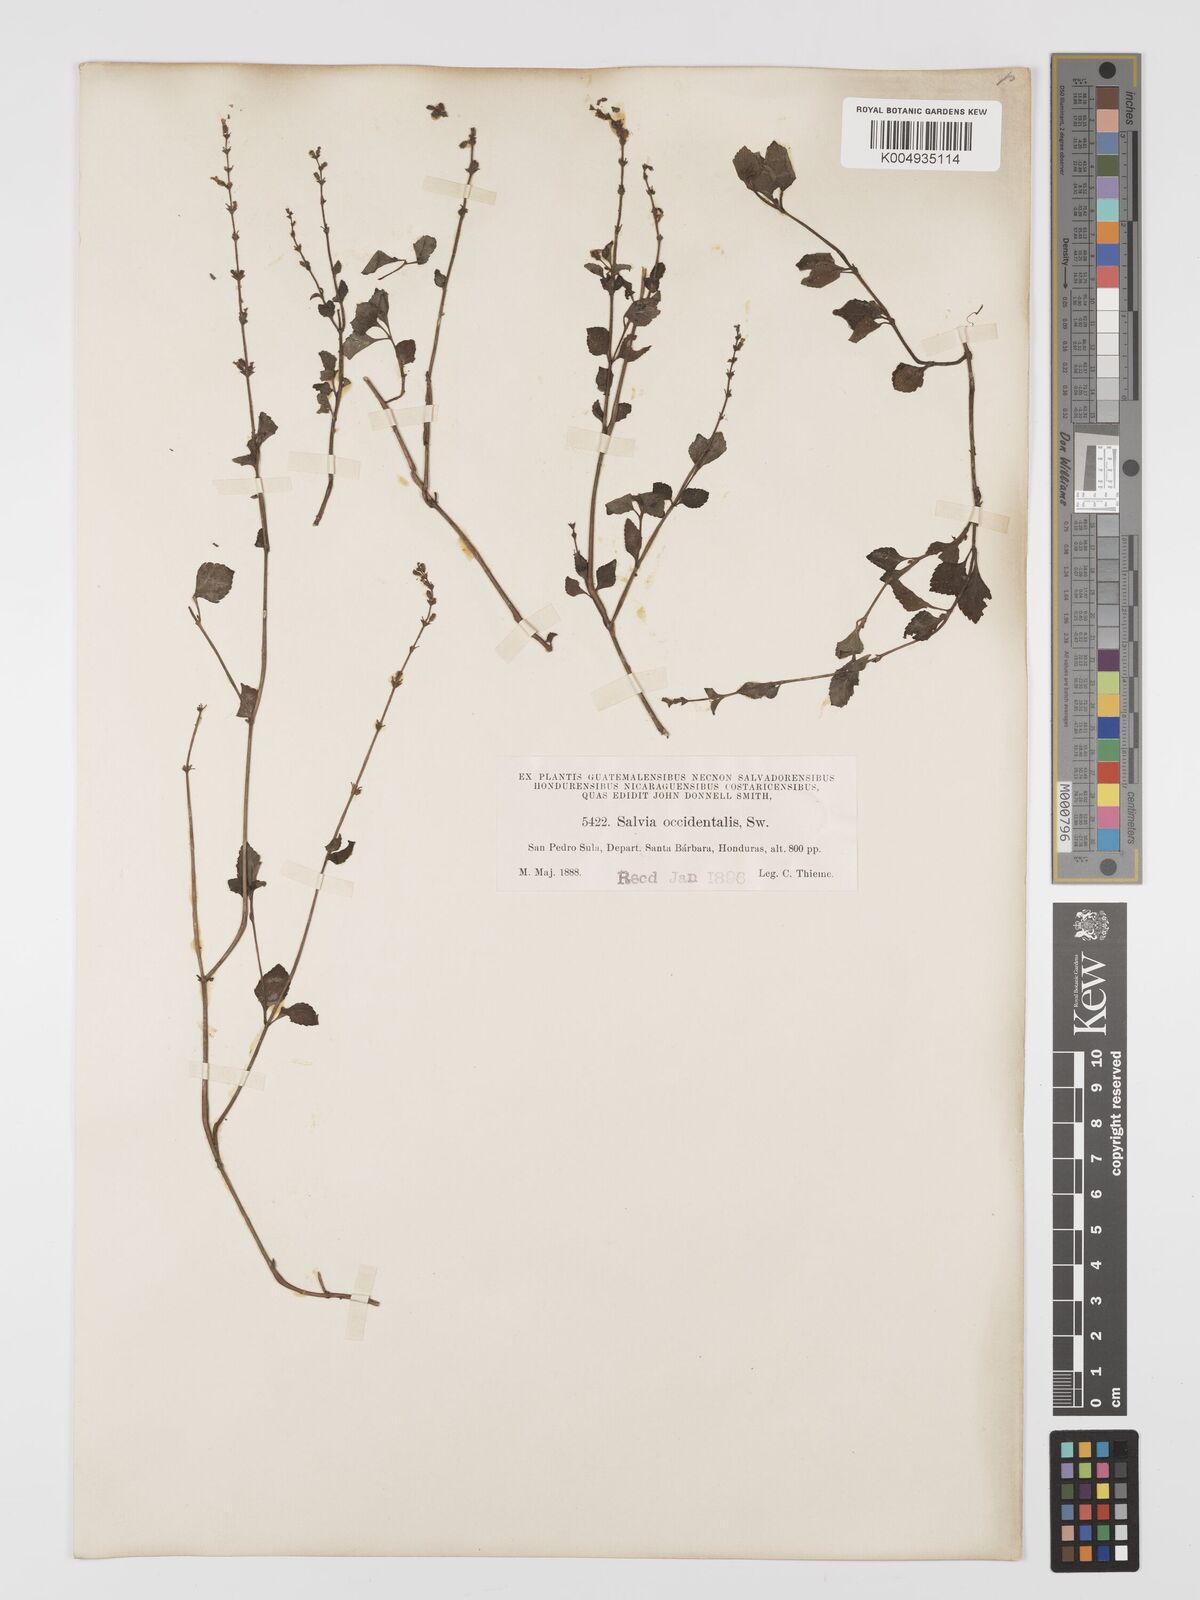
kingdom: Plantae
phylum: Tracheophyta
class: Magnoliopsida
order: Lamiales
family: Lamiaceae
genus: Salvia
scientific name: Salvia occidentalis
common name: West indian sage
